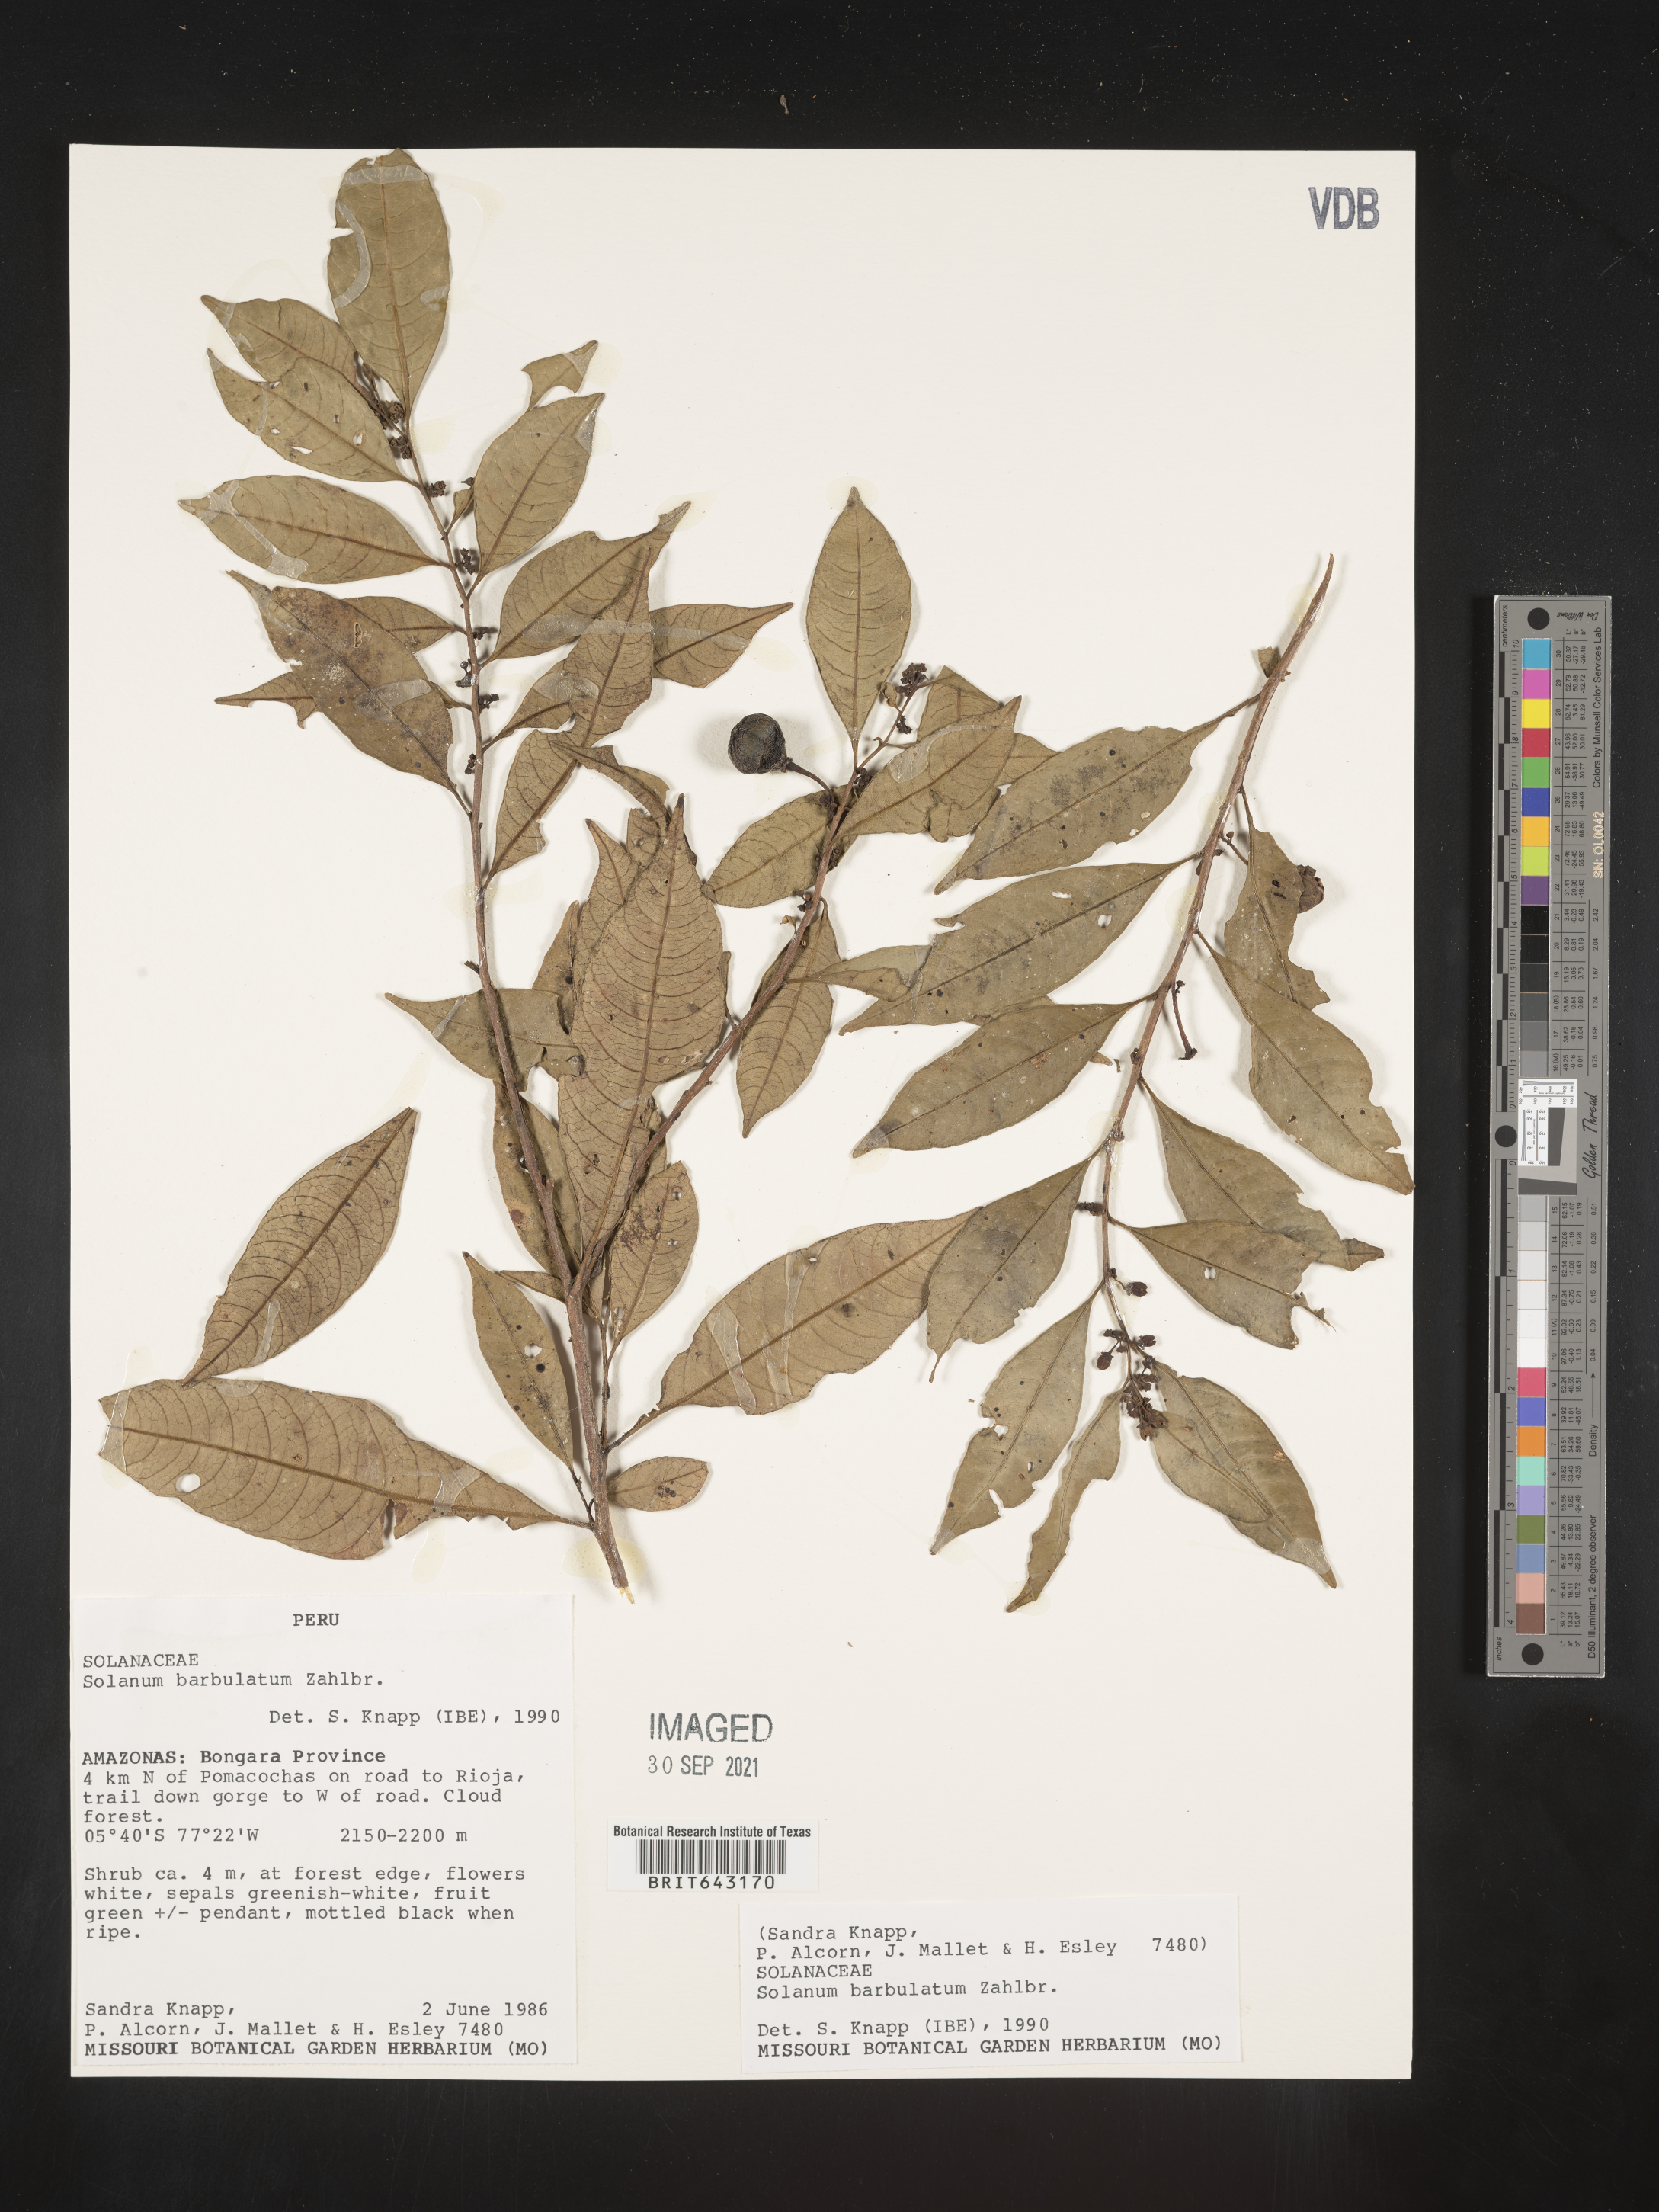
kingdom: Plantae
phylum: Tracheophyta
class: Magnoliopsida
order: Solanales
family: Solanaceae
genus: Solanum
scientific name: Solanum
